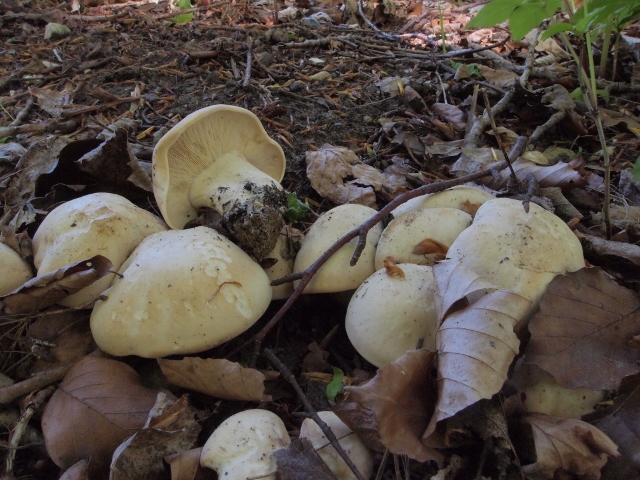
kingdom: Fungi
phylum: Basidiomycota
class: Agaricomycetes
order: Agaricales
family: Lyophyllaceae
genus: Calocybe
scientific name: Calocybe gambosa
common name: vårmusseron
